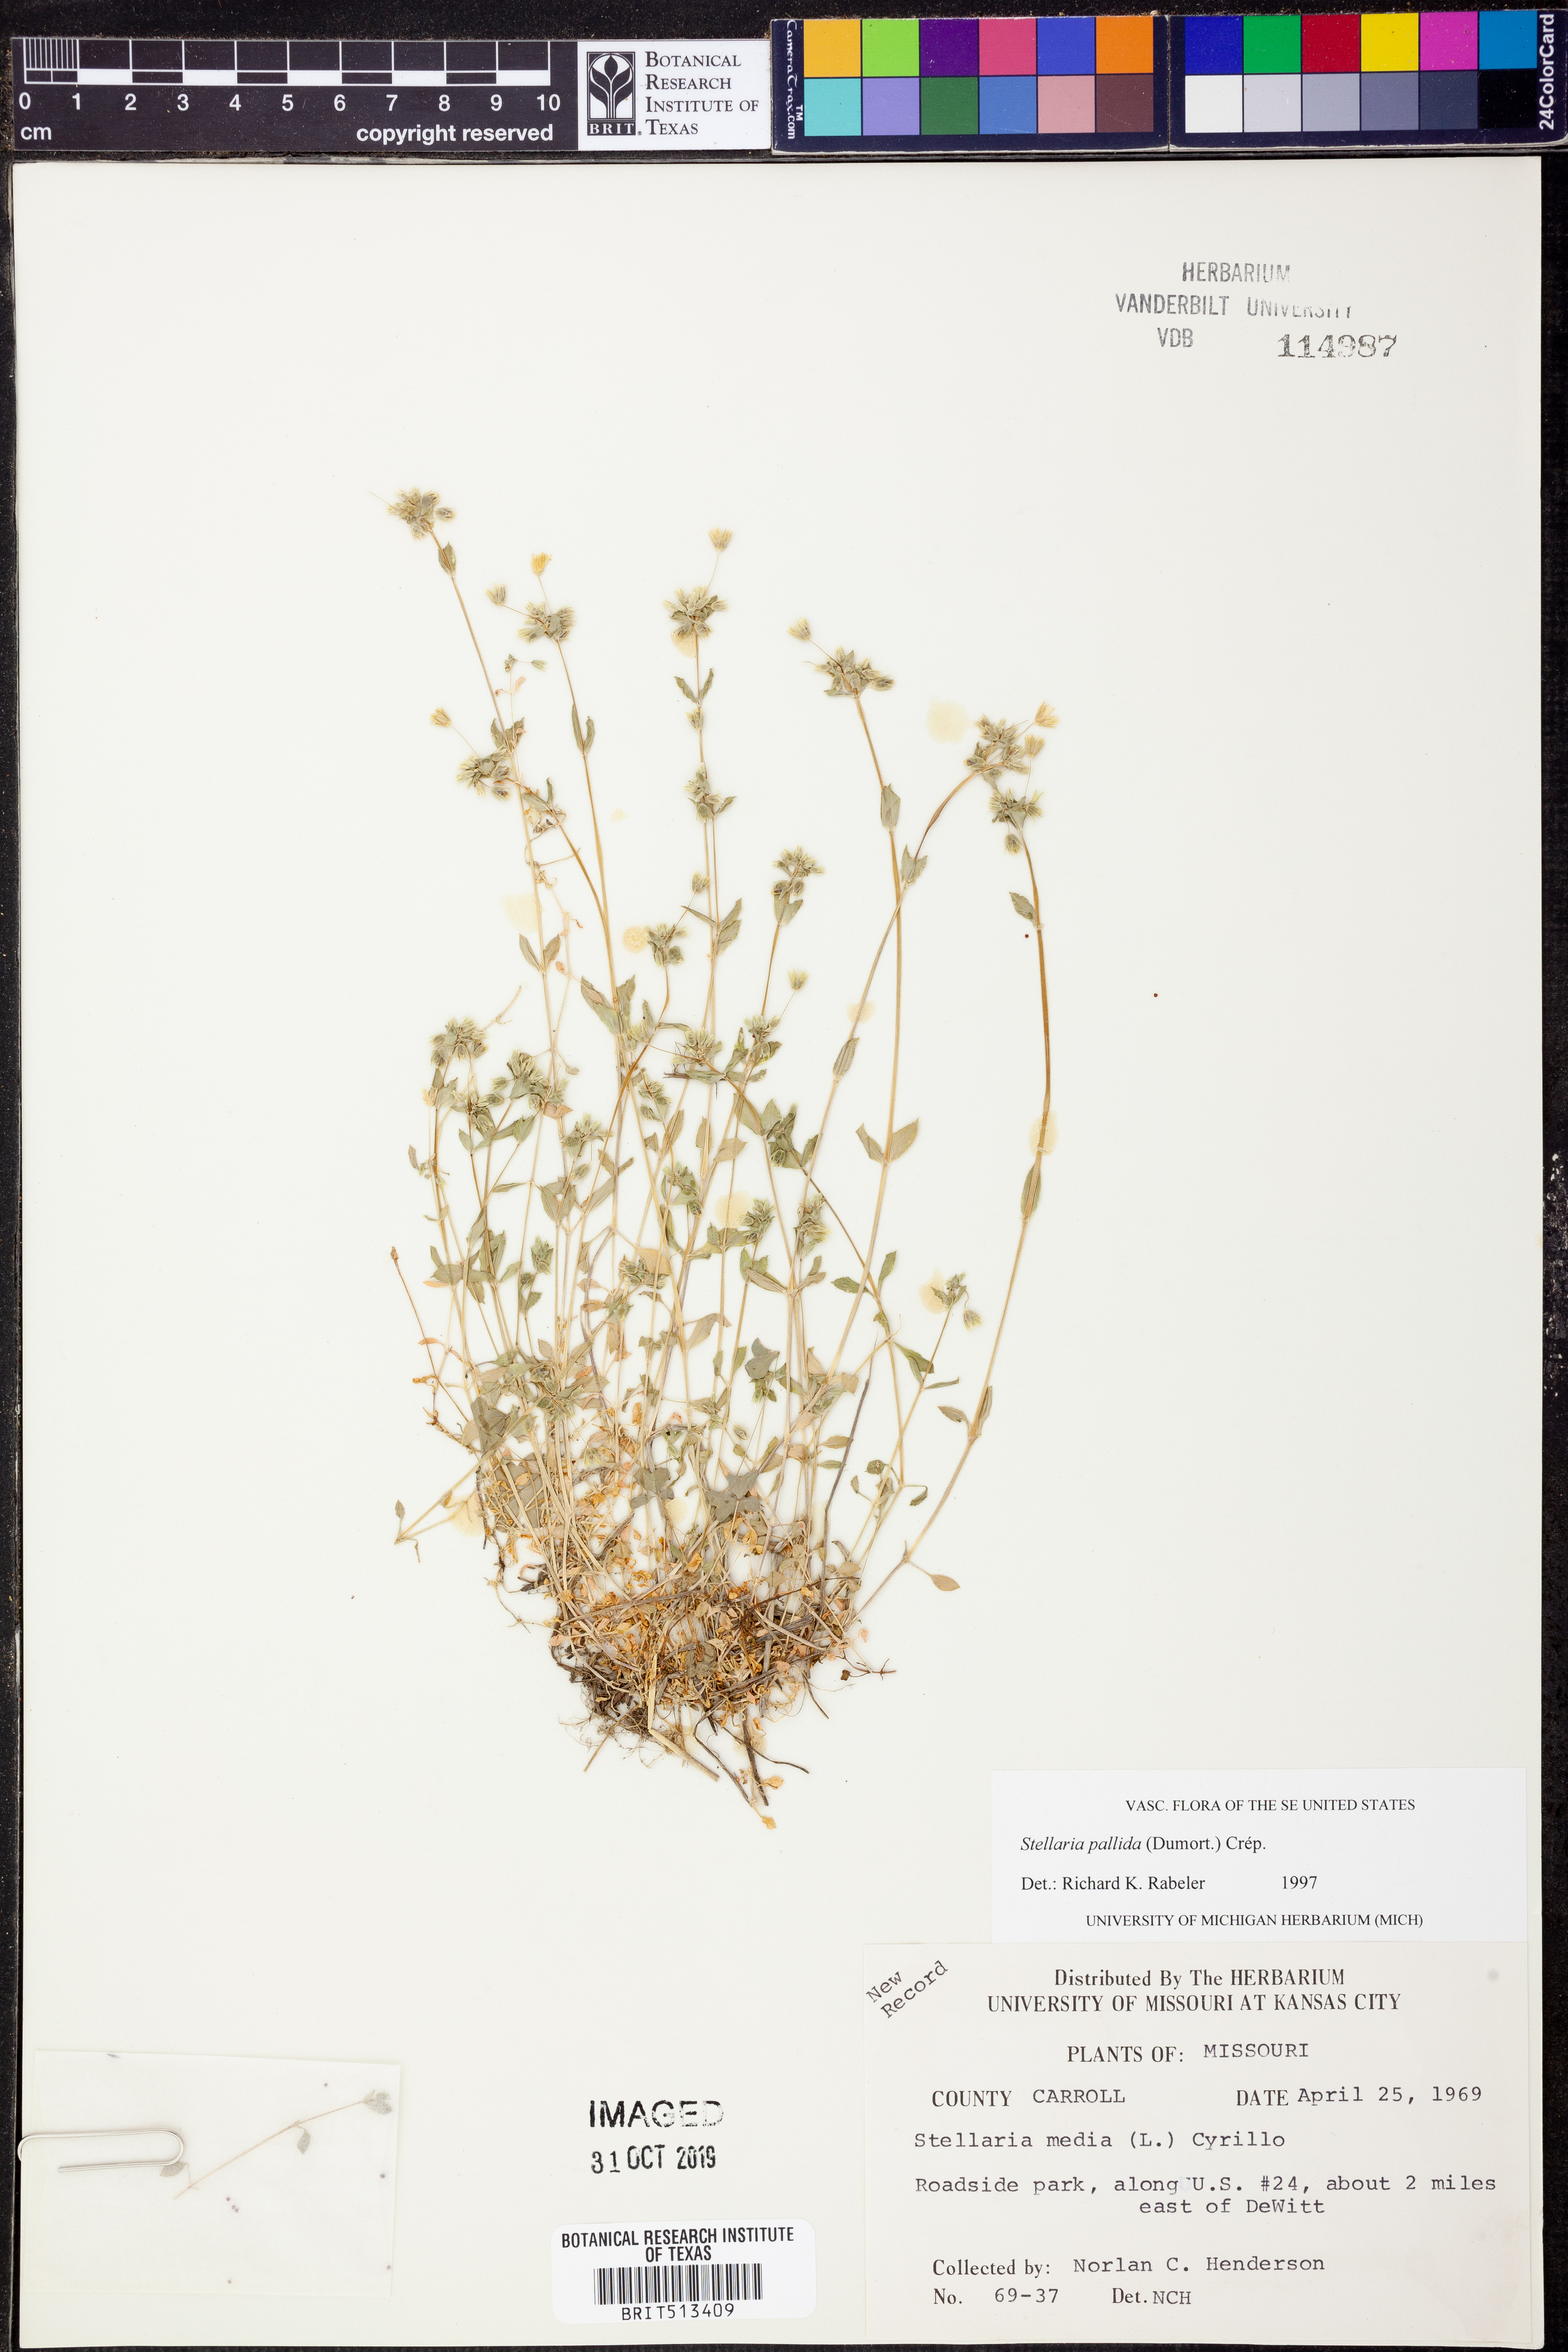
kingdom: Plantae
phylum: Tracheophyta
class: Magnoliopsida
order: Caryophyllales
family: Caryophyllaceae
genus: Stellaria
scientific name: Stellaria media
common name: Common chickweed
